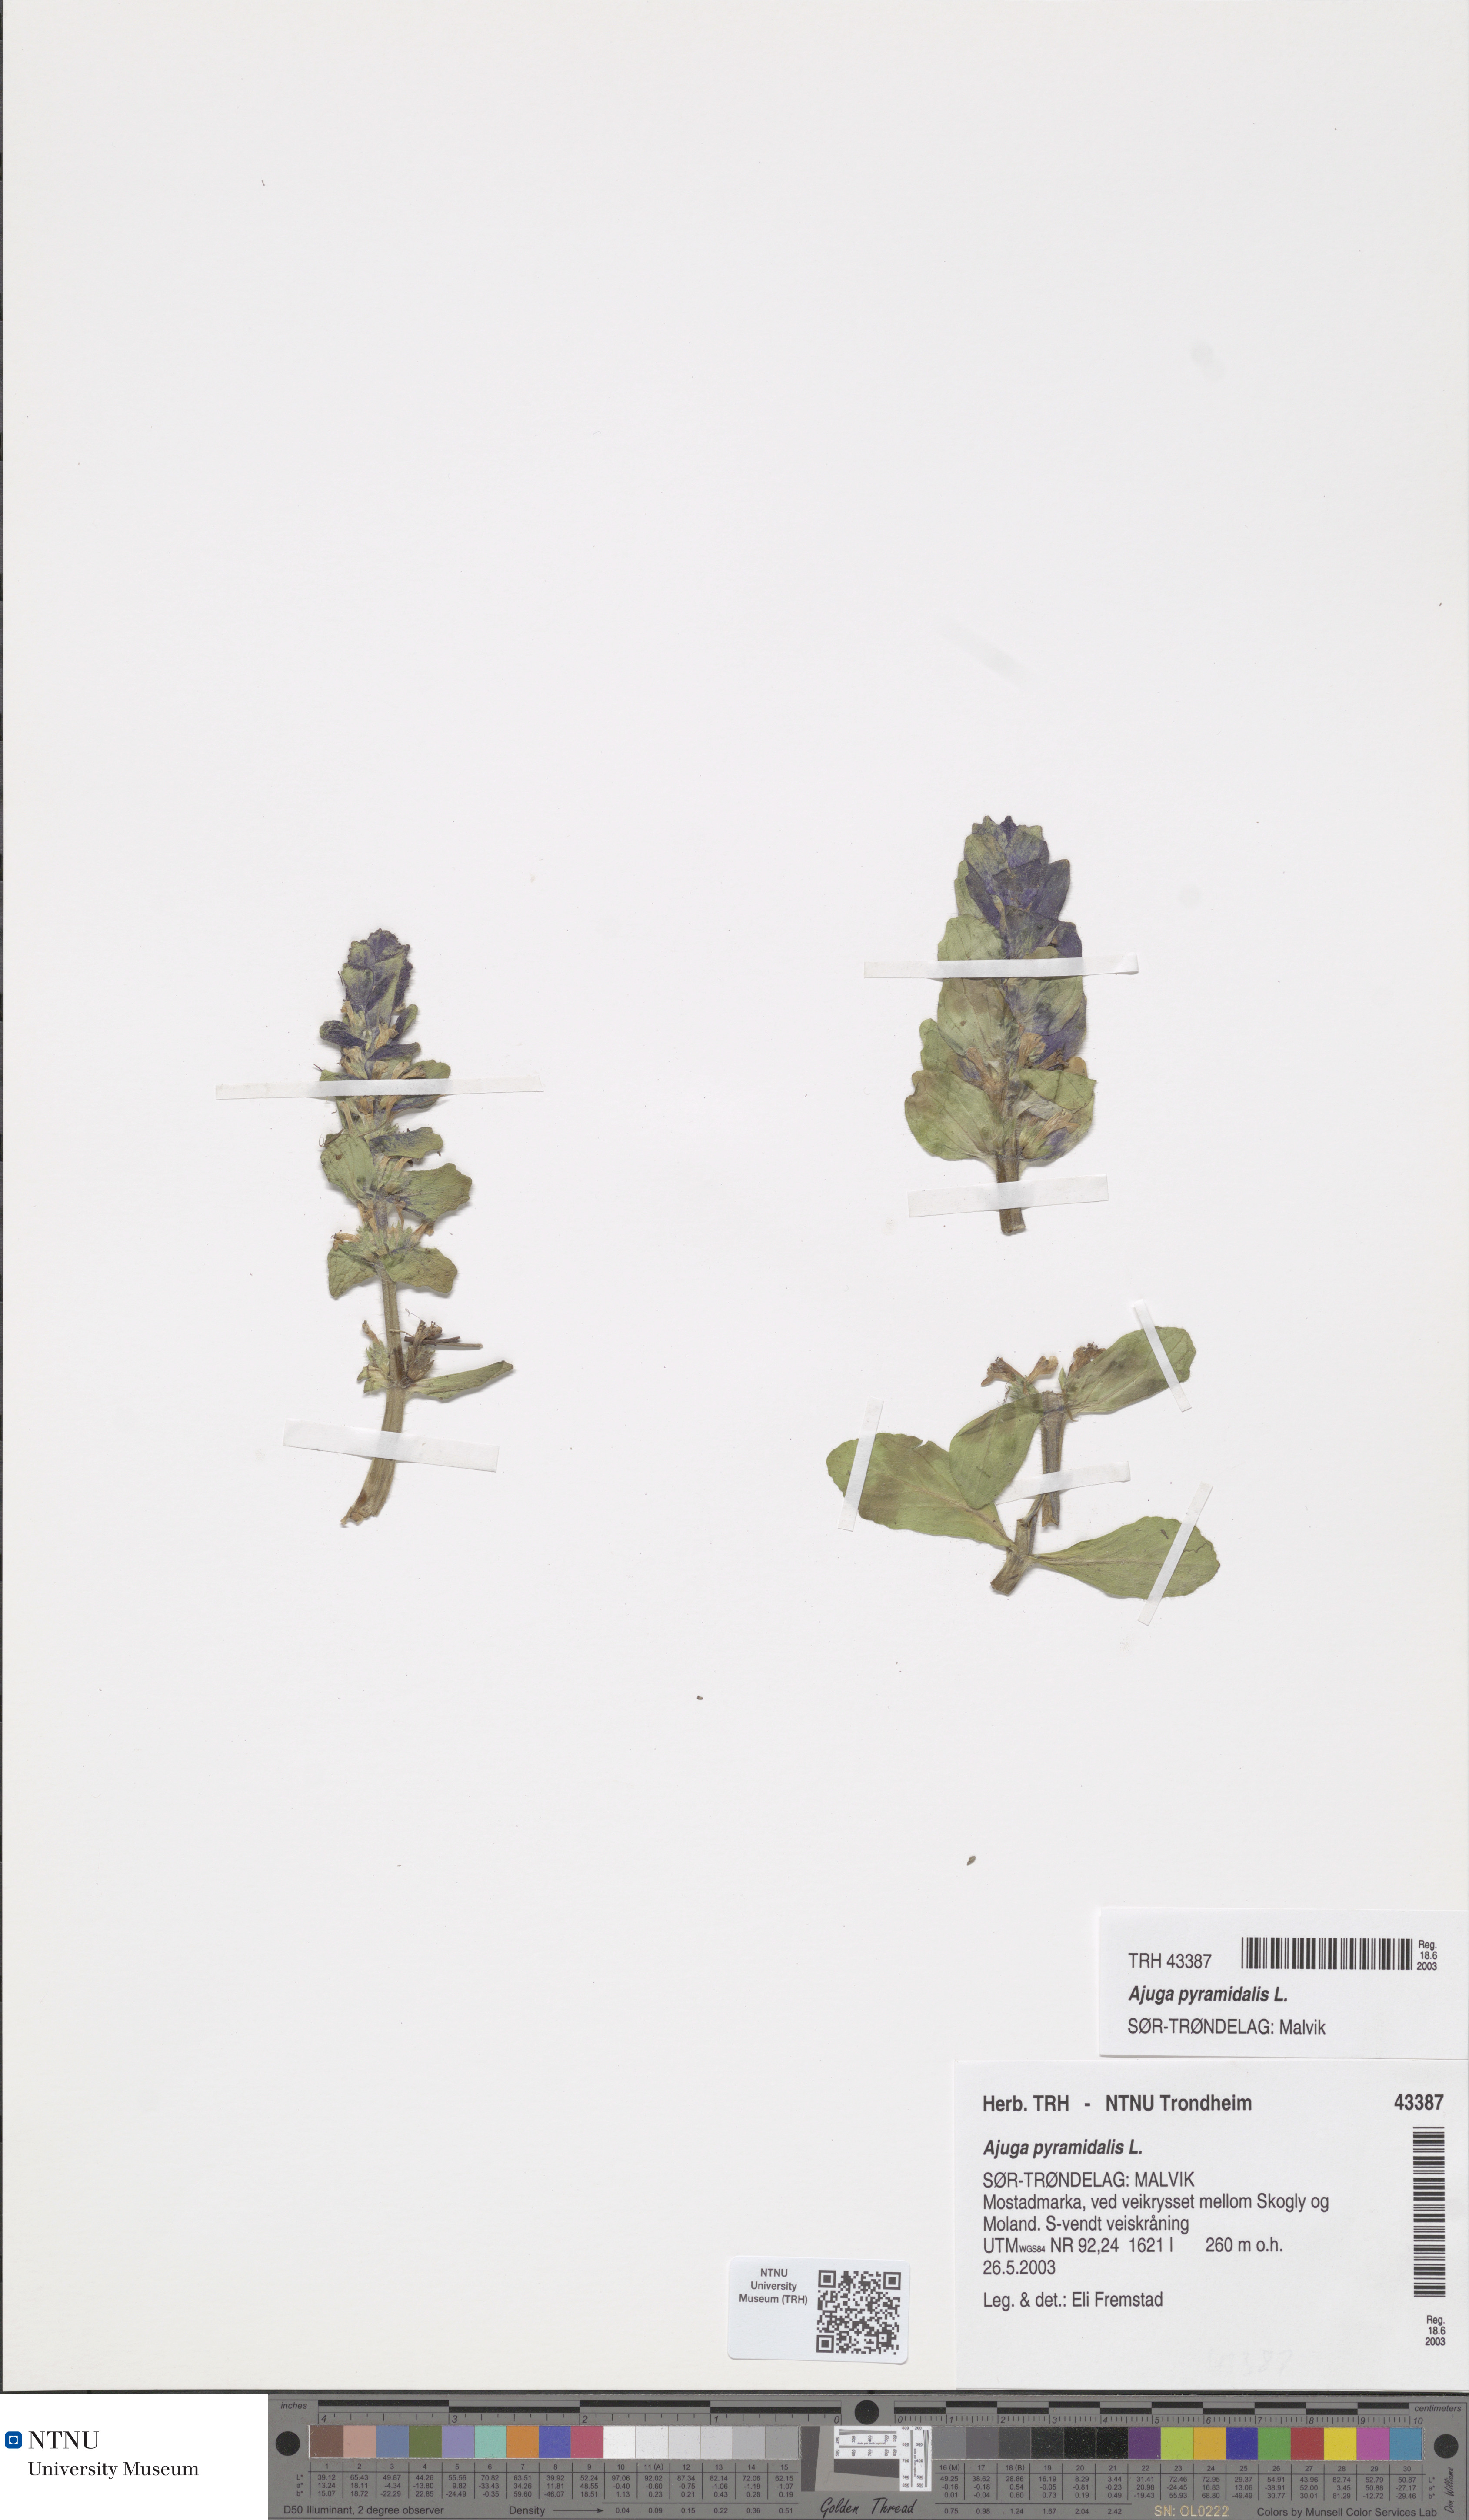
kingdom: Plantae
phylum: Tracheophyta
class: Magnoliopsida
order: Lamiales
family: Lamiaceae
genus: Ajuga
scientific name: Ajuga pyramidalis
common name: Pyramid bugle
